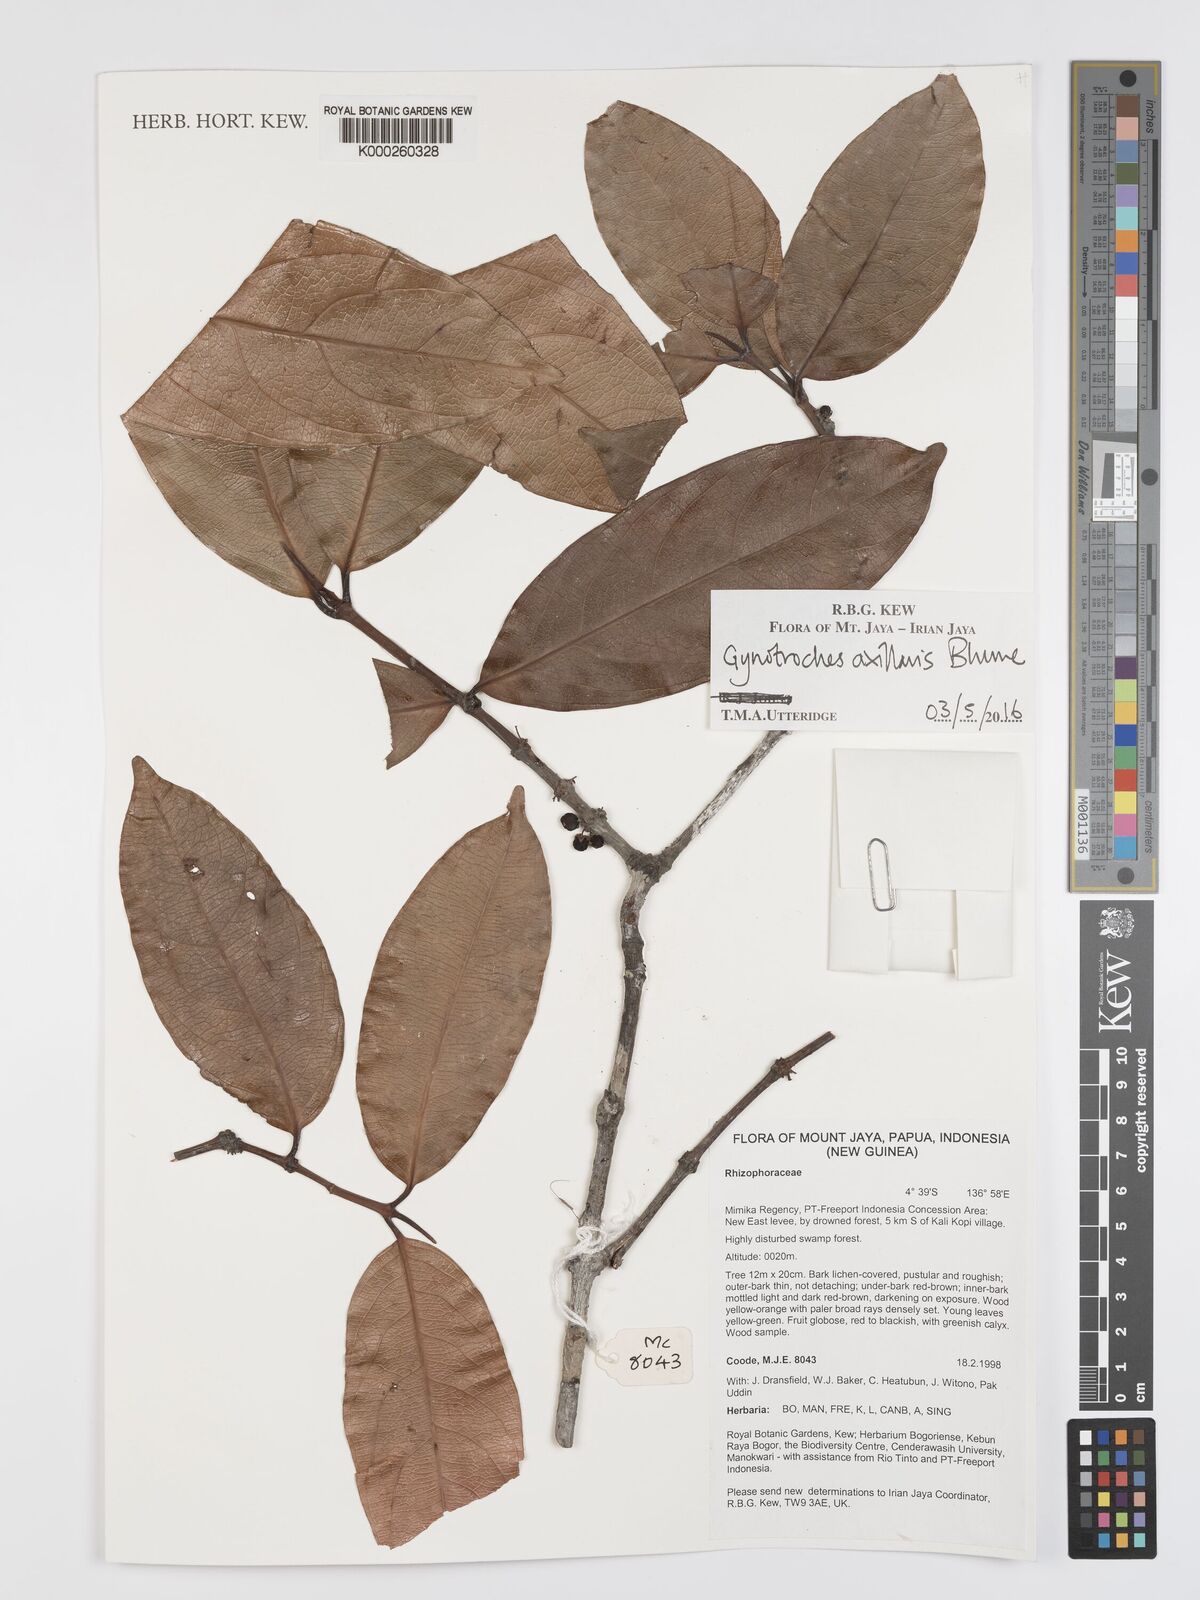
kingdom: Plantae
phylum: Tracheophyta
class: Magnoliopsida
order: Malpighiales
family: Rhizophoraceae
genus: Gynotroches
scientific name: Gynotroches axillaris
